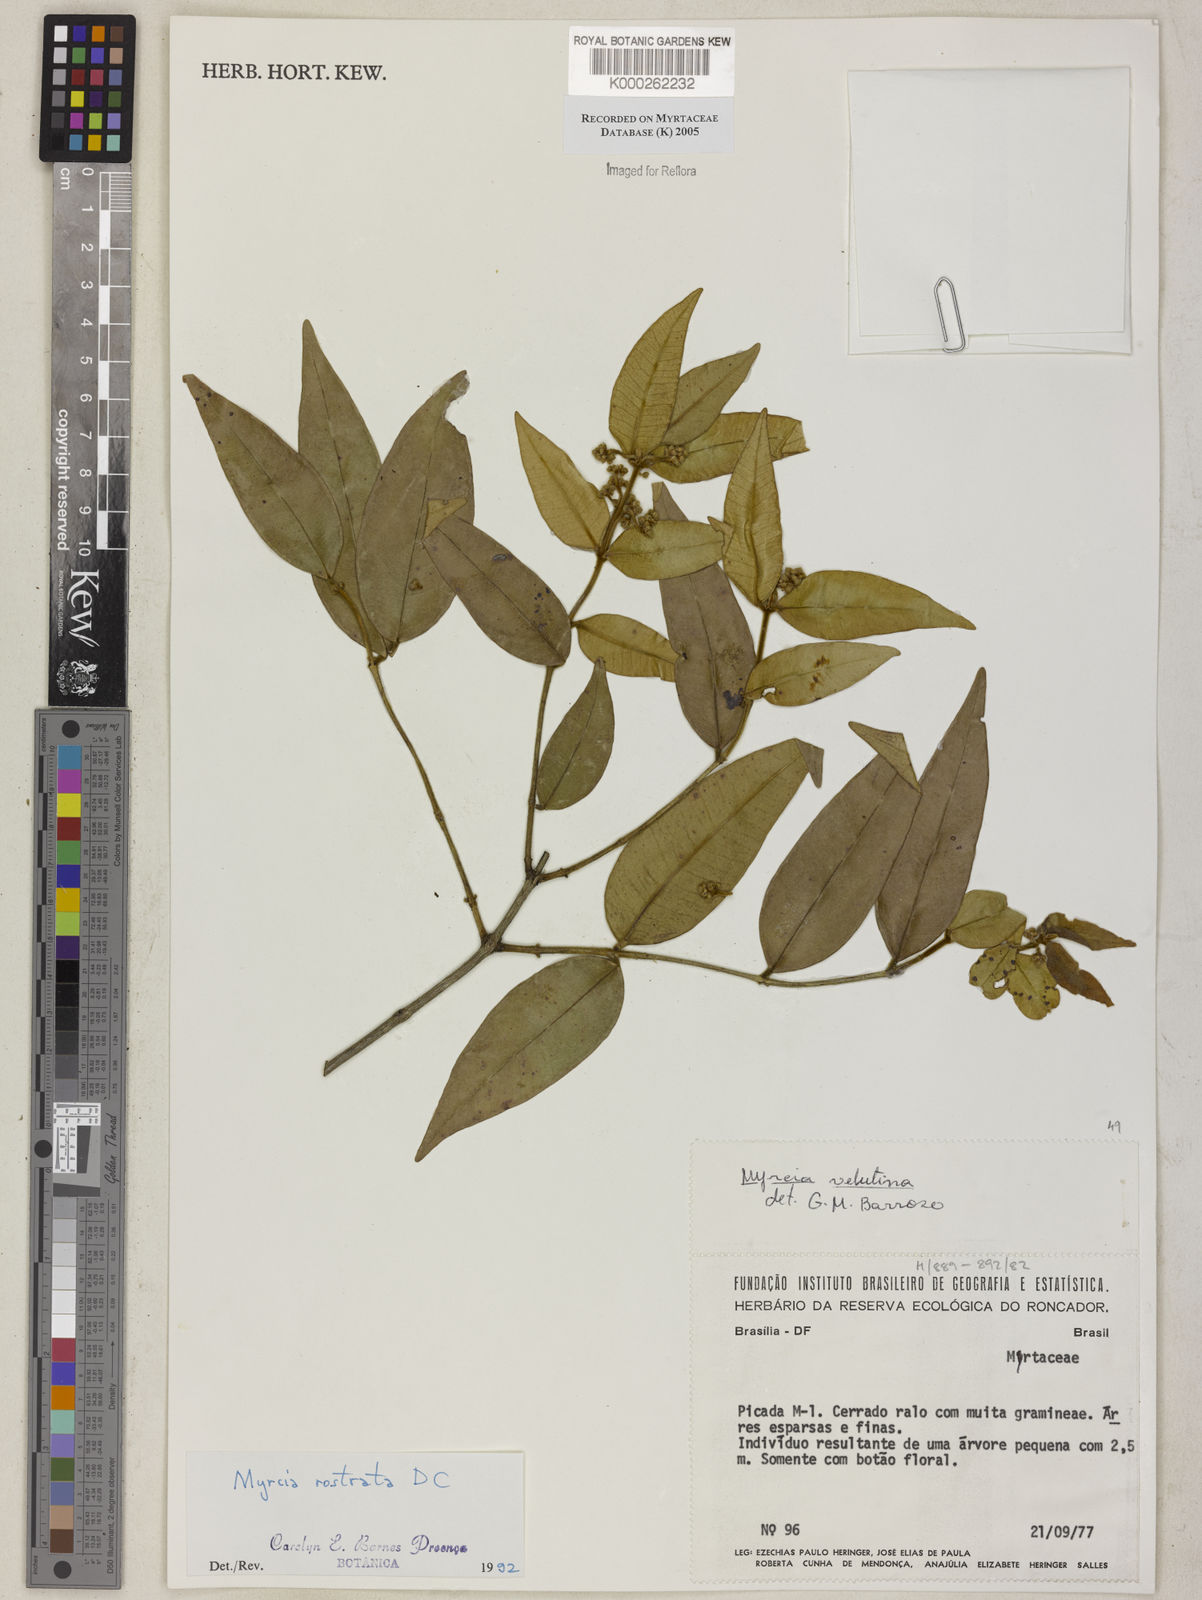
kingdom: Plantae
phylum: Tracheophyta
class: Magnoliopsida
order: Myrtales
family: Myrtaceae
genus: Myrcia
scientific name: Myrcia splendens
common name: Surinam cherry
